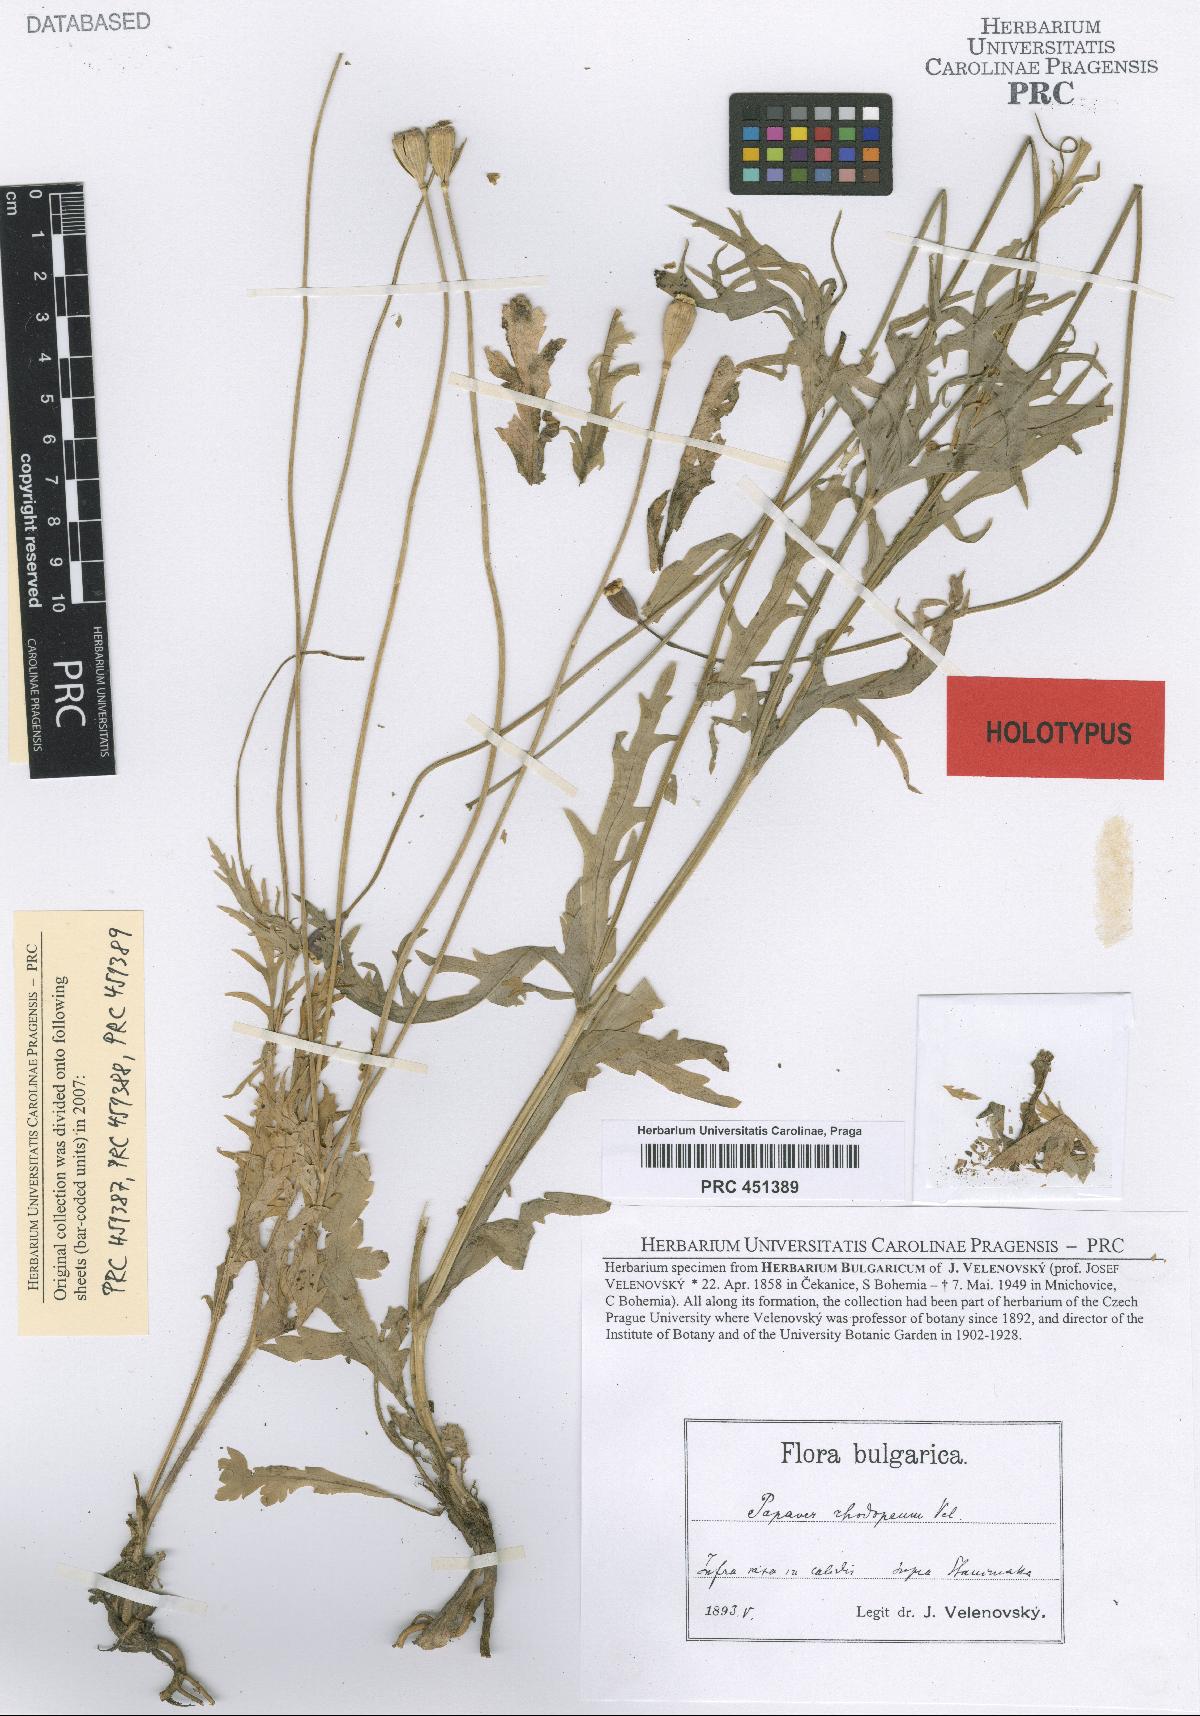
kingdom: Plantae
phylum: Tracheophyta
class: Magnoliopsida
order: Ranunculales
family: Papaveraceae
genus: Papaver
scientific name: Papaver laevigatum
